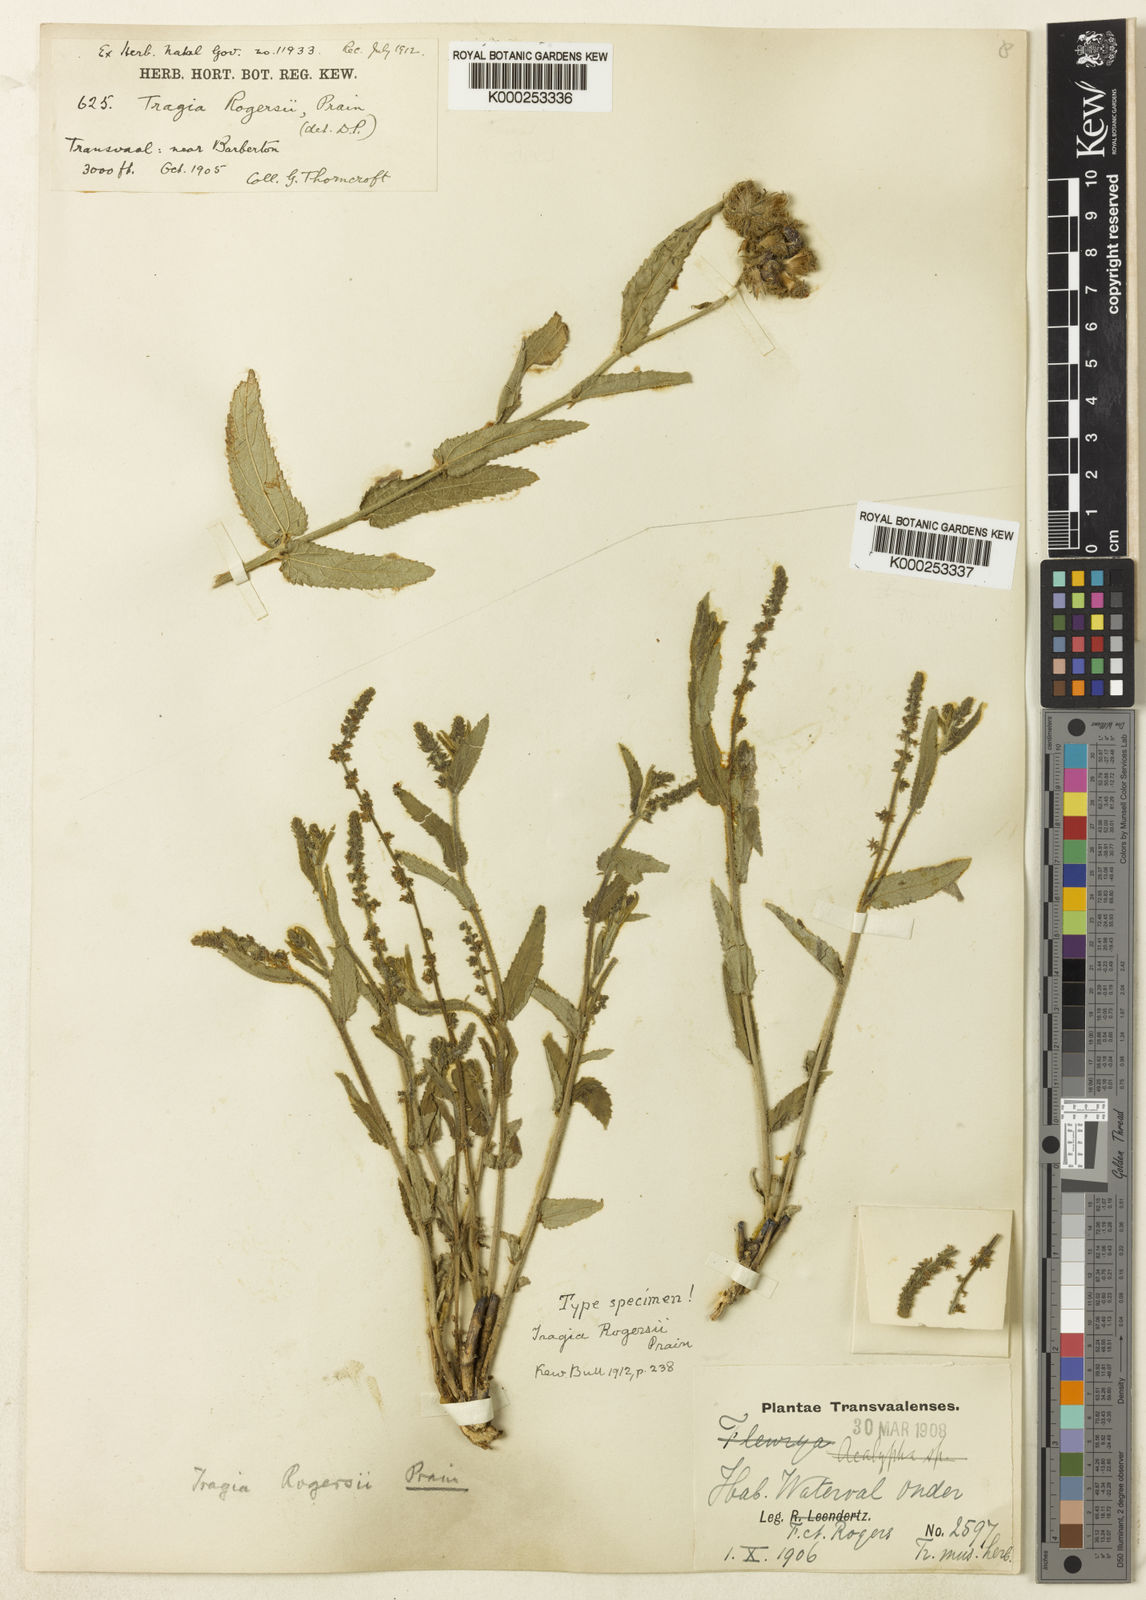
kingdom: Plantae
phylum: Tracheophyta
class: Magnoliopsida
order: Malpighiales
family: Euphorbiaceae
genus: Tragia
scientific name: Tragia rogersii
